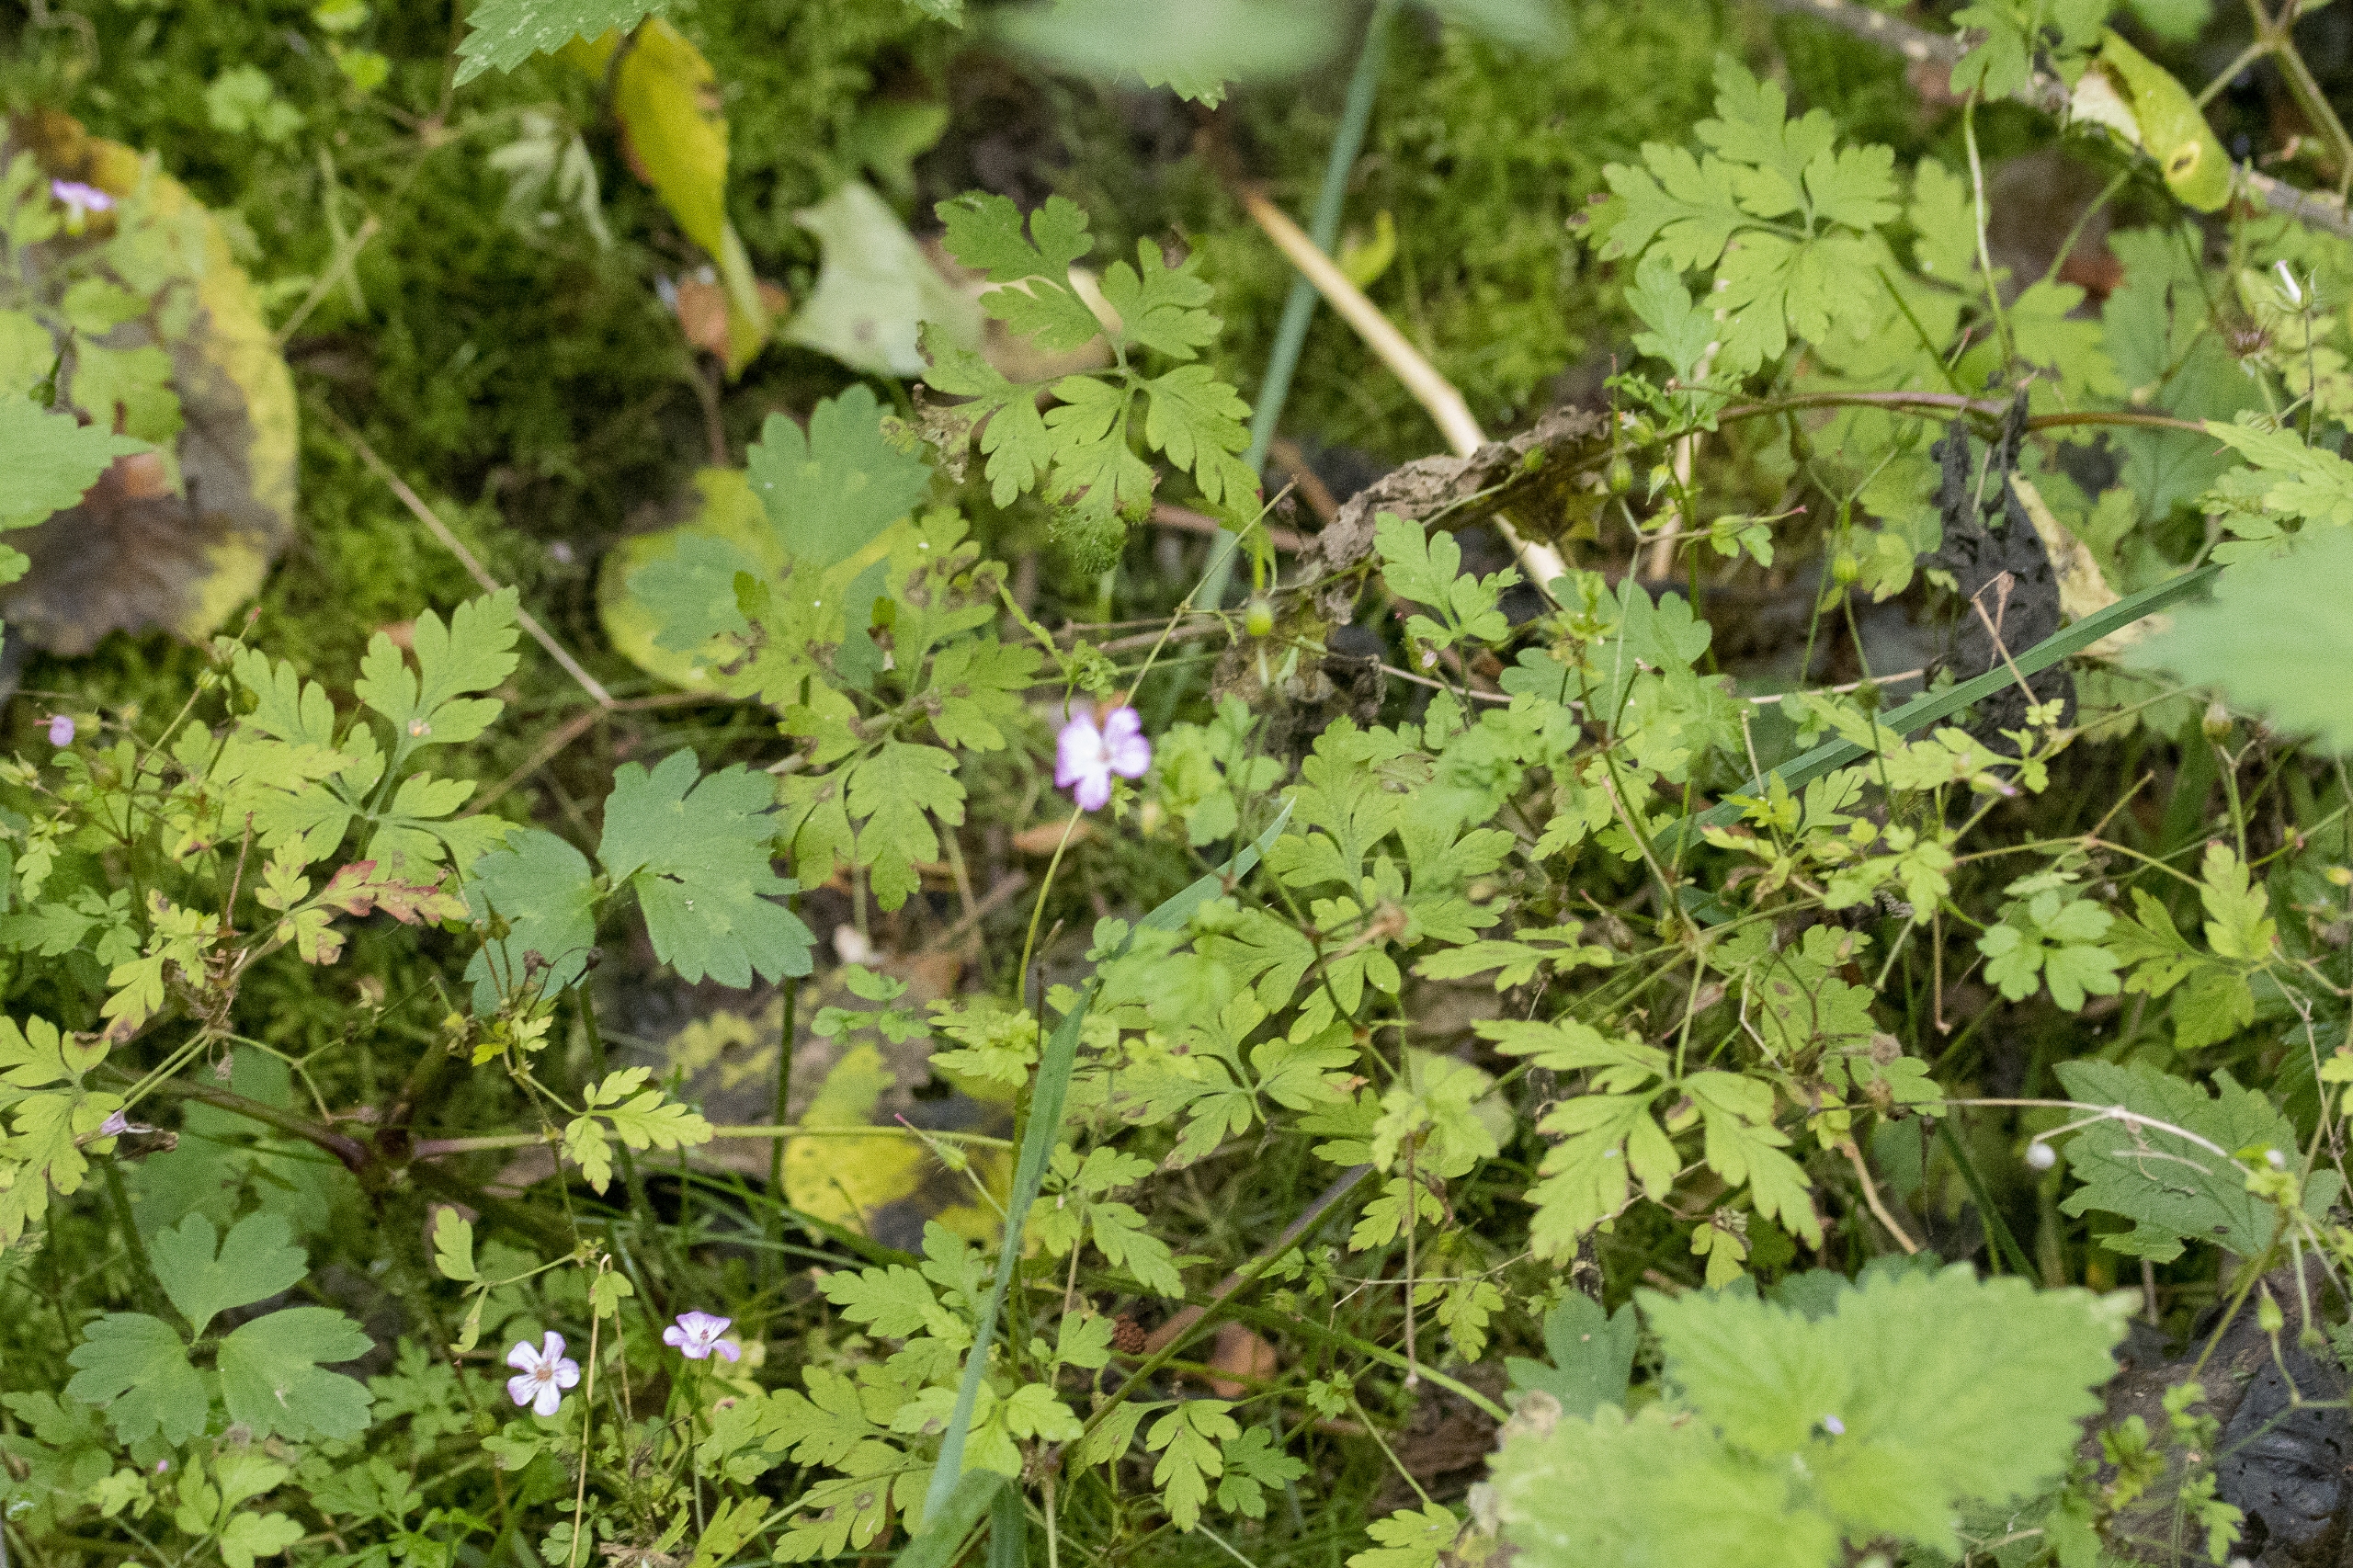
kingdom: Plantae
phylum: Tracheophyta
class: Magnoliopsida
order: Geraniales
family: Geraniaceae
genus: Geranium
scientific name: Geranium robertianum
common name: Stinkende storkenæb
